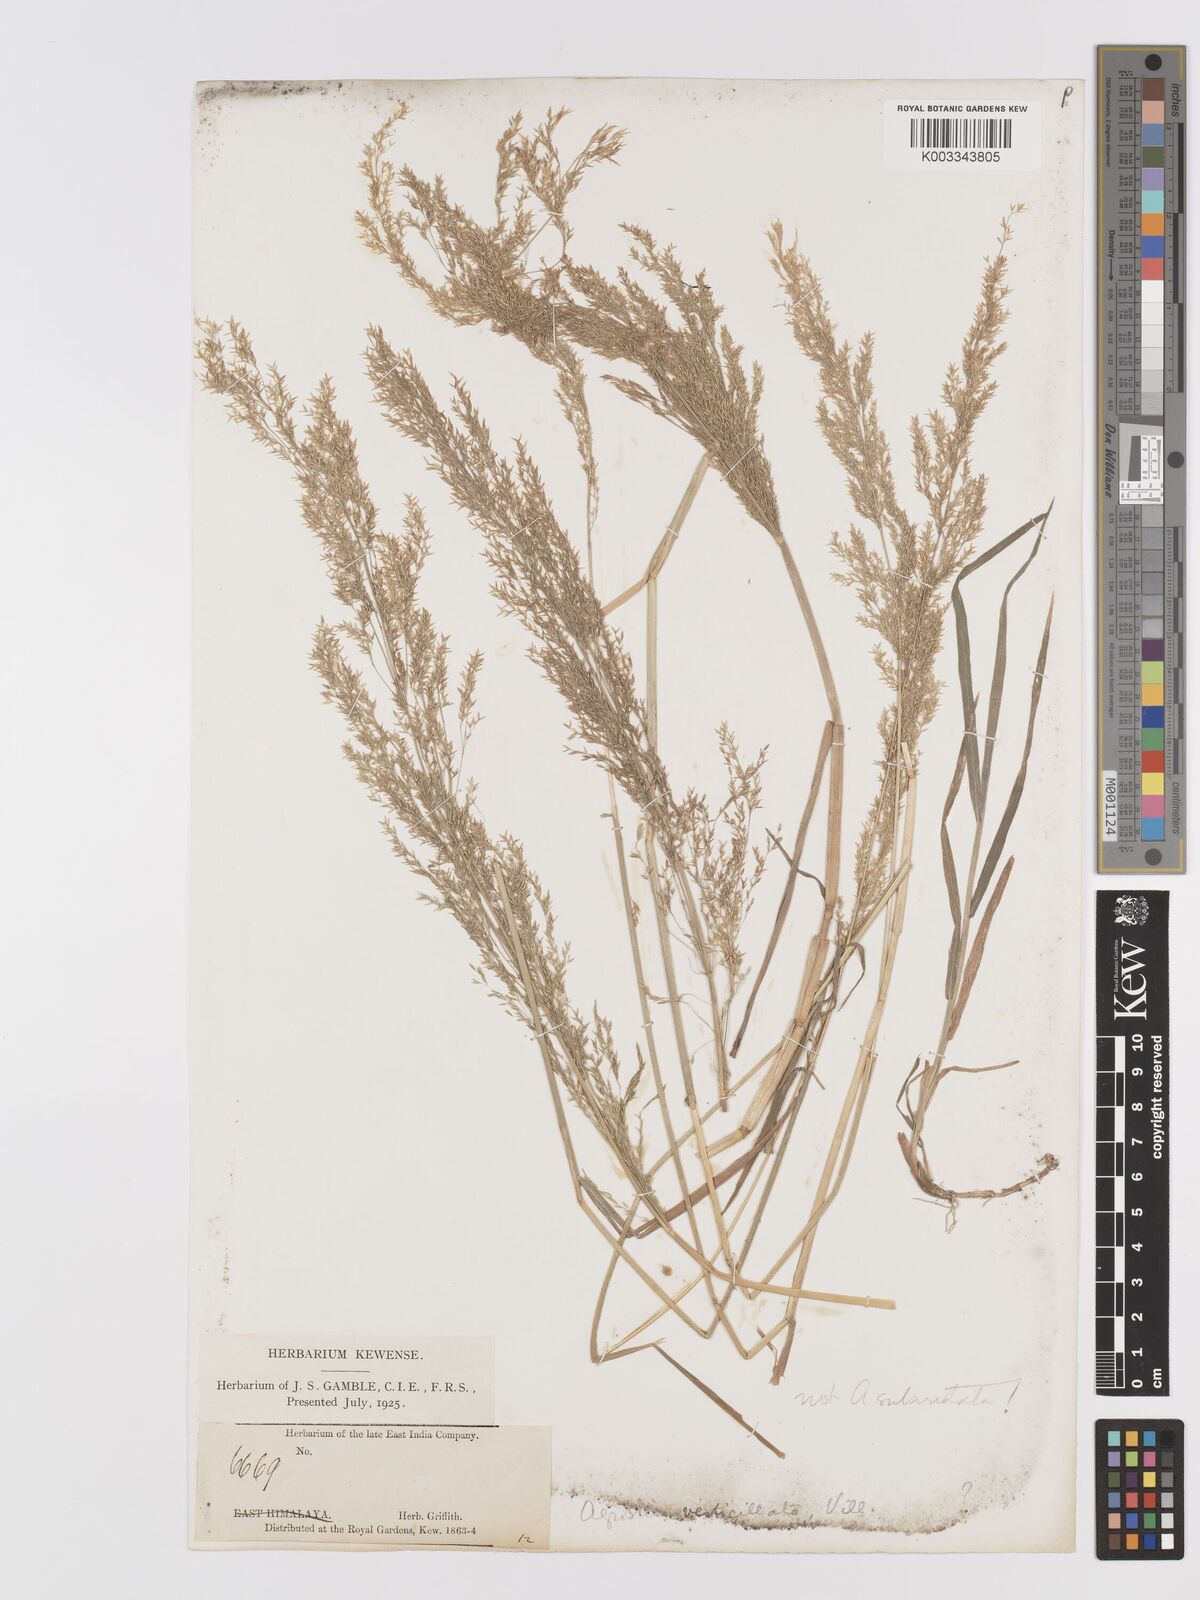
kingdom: Plantae
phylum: Tracheophyta
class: Liliopsida
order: Poales
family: Poaceae
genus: Agrostis
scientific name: Agrostis
